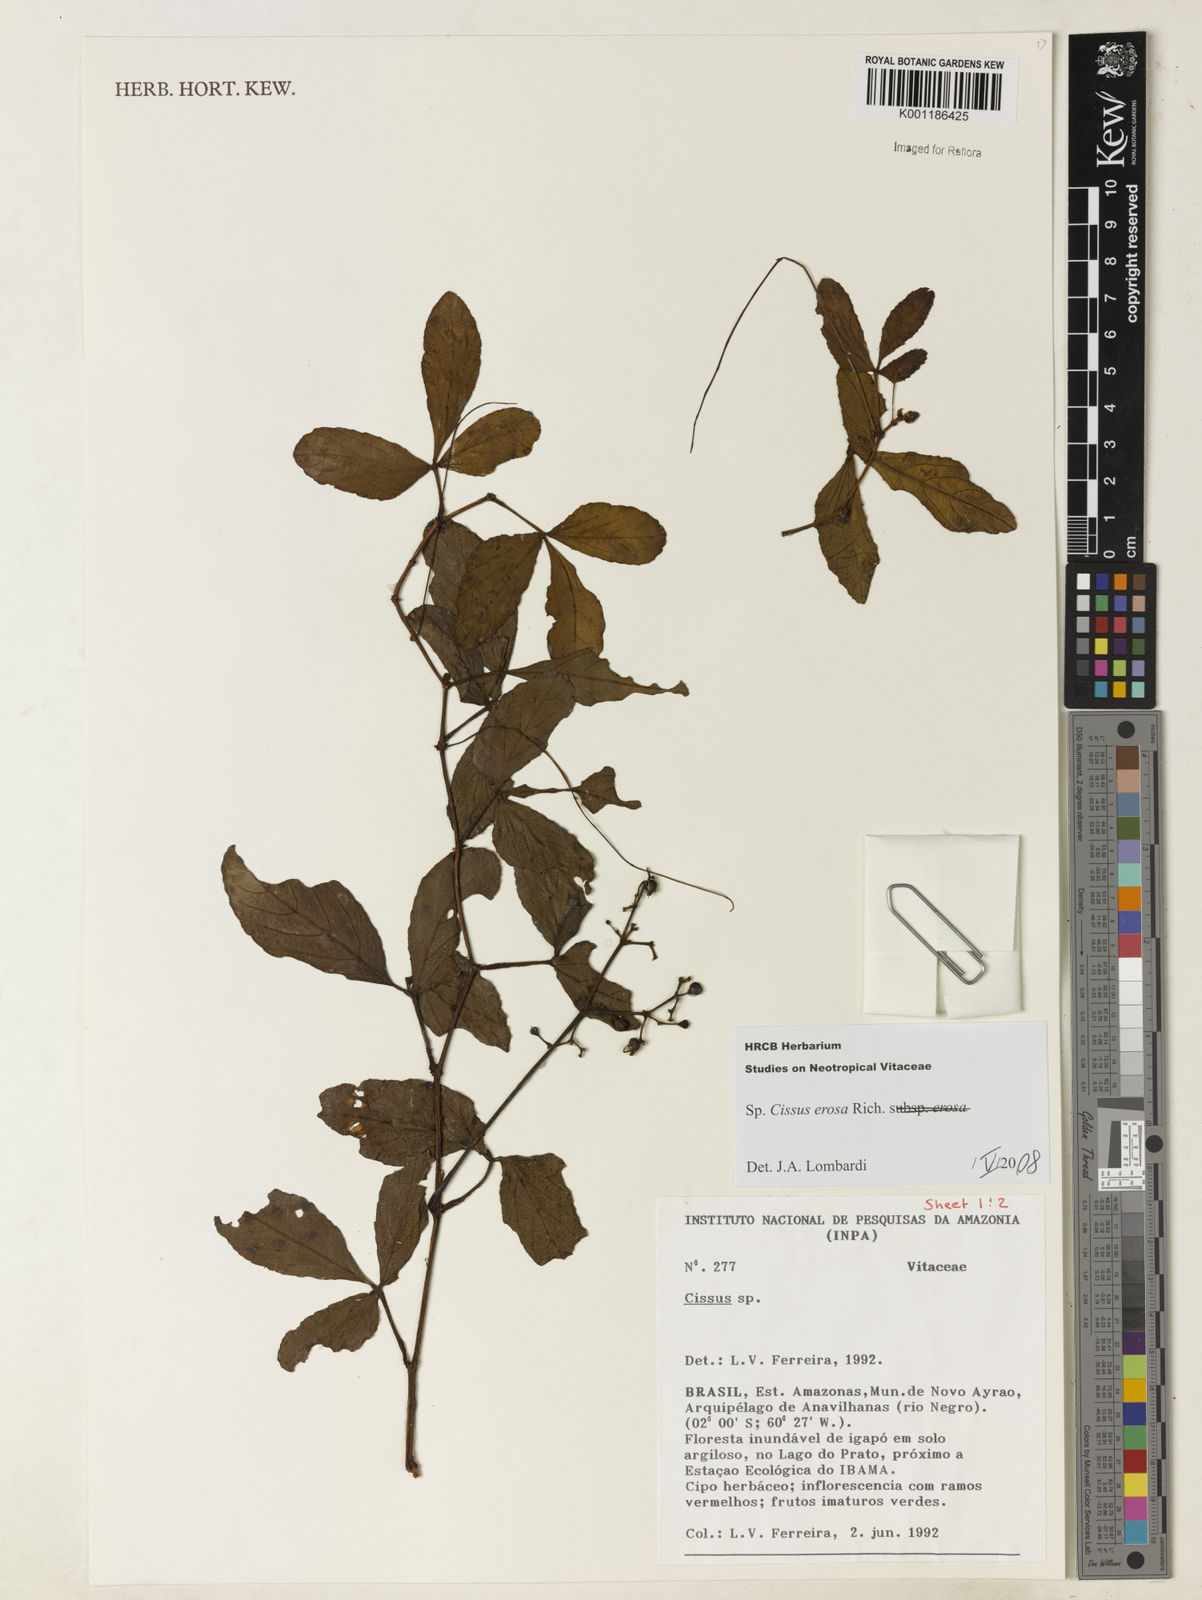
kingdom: Plantae
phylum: Tracheophyta
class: Magnoliopsida
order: Vitales
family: Vitaceae
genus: Cissus
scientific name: Cissus erosa
